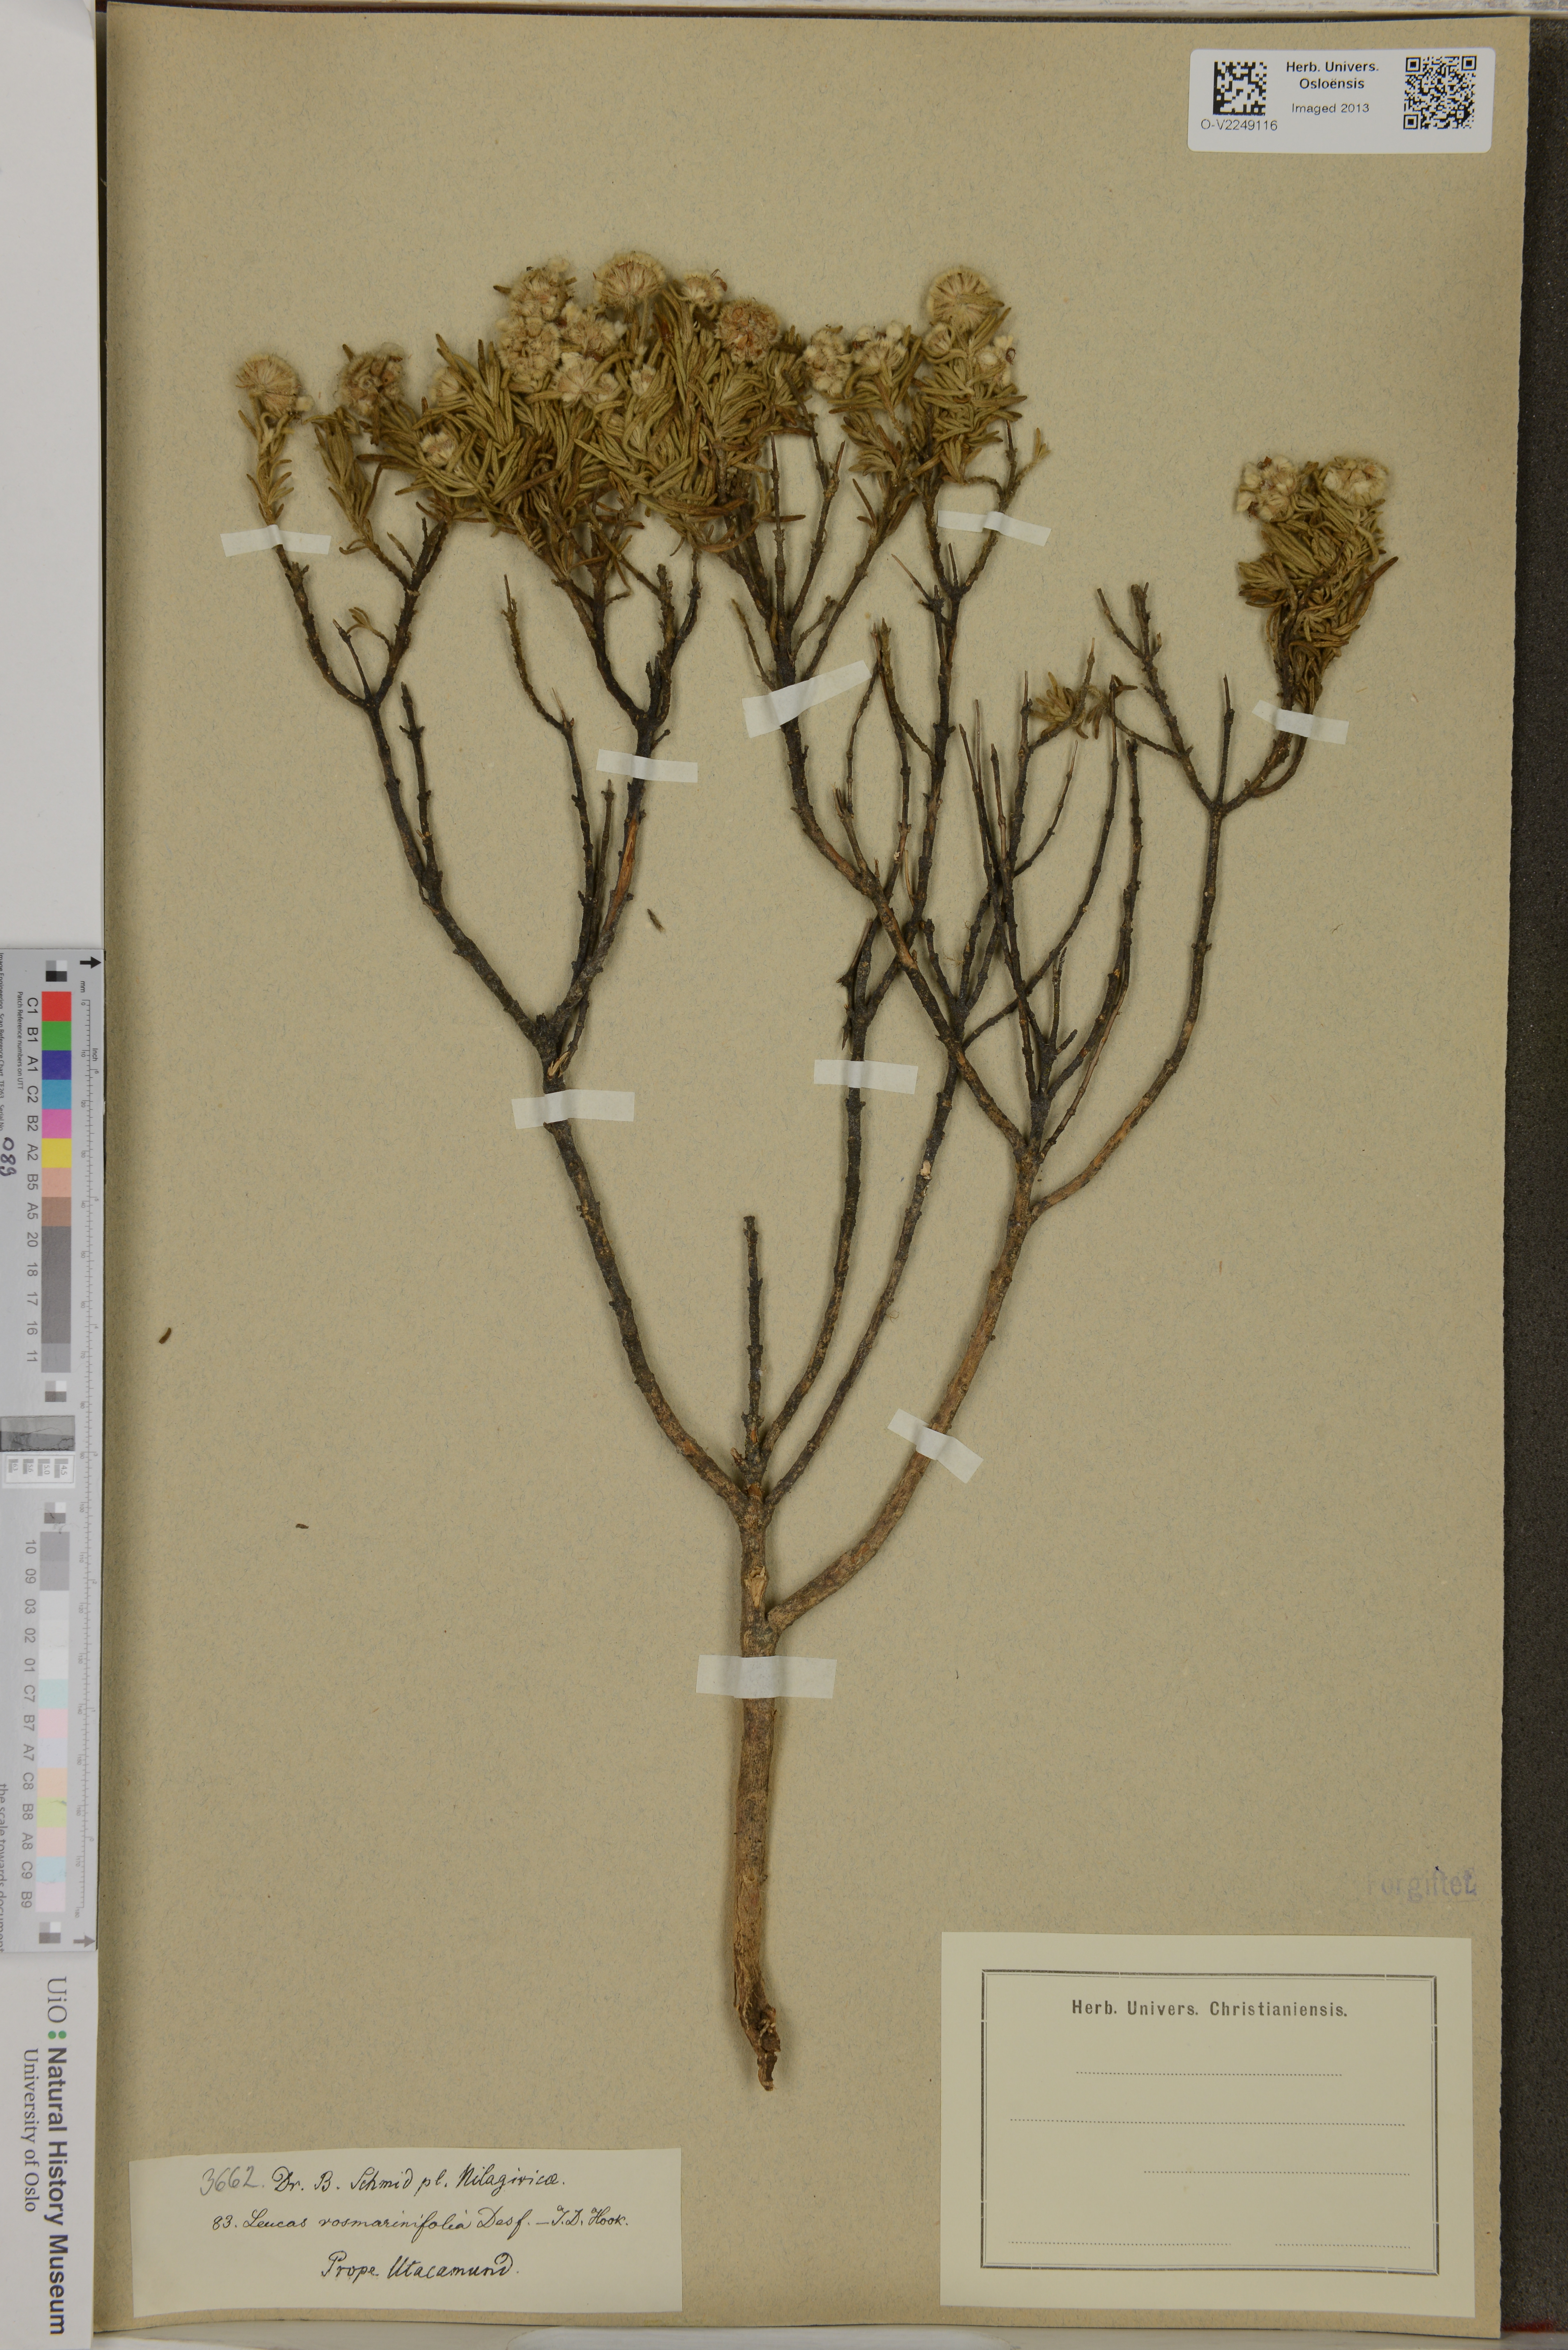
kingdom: Plantae
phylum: Tracheophyta
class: Magnoliopsida
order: Lamiales
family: Lamiaceae
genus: Leucas
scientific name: Leucas rosmarinifolia
